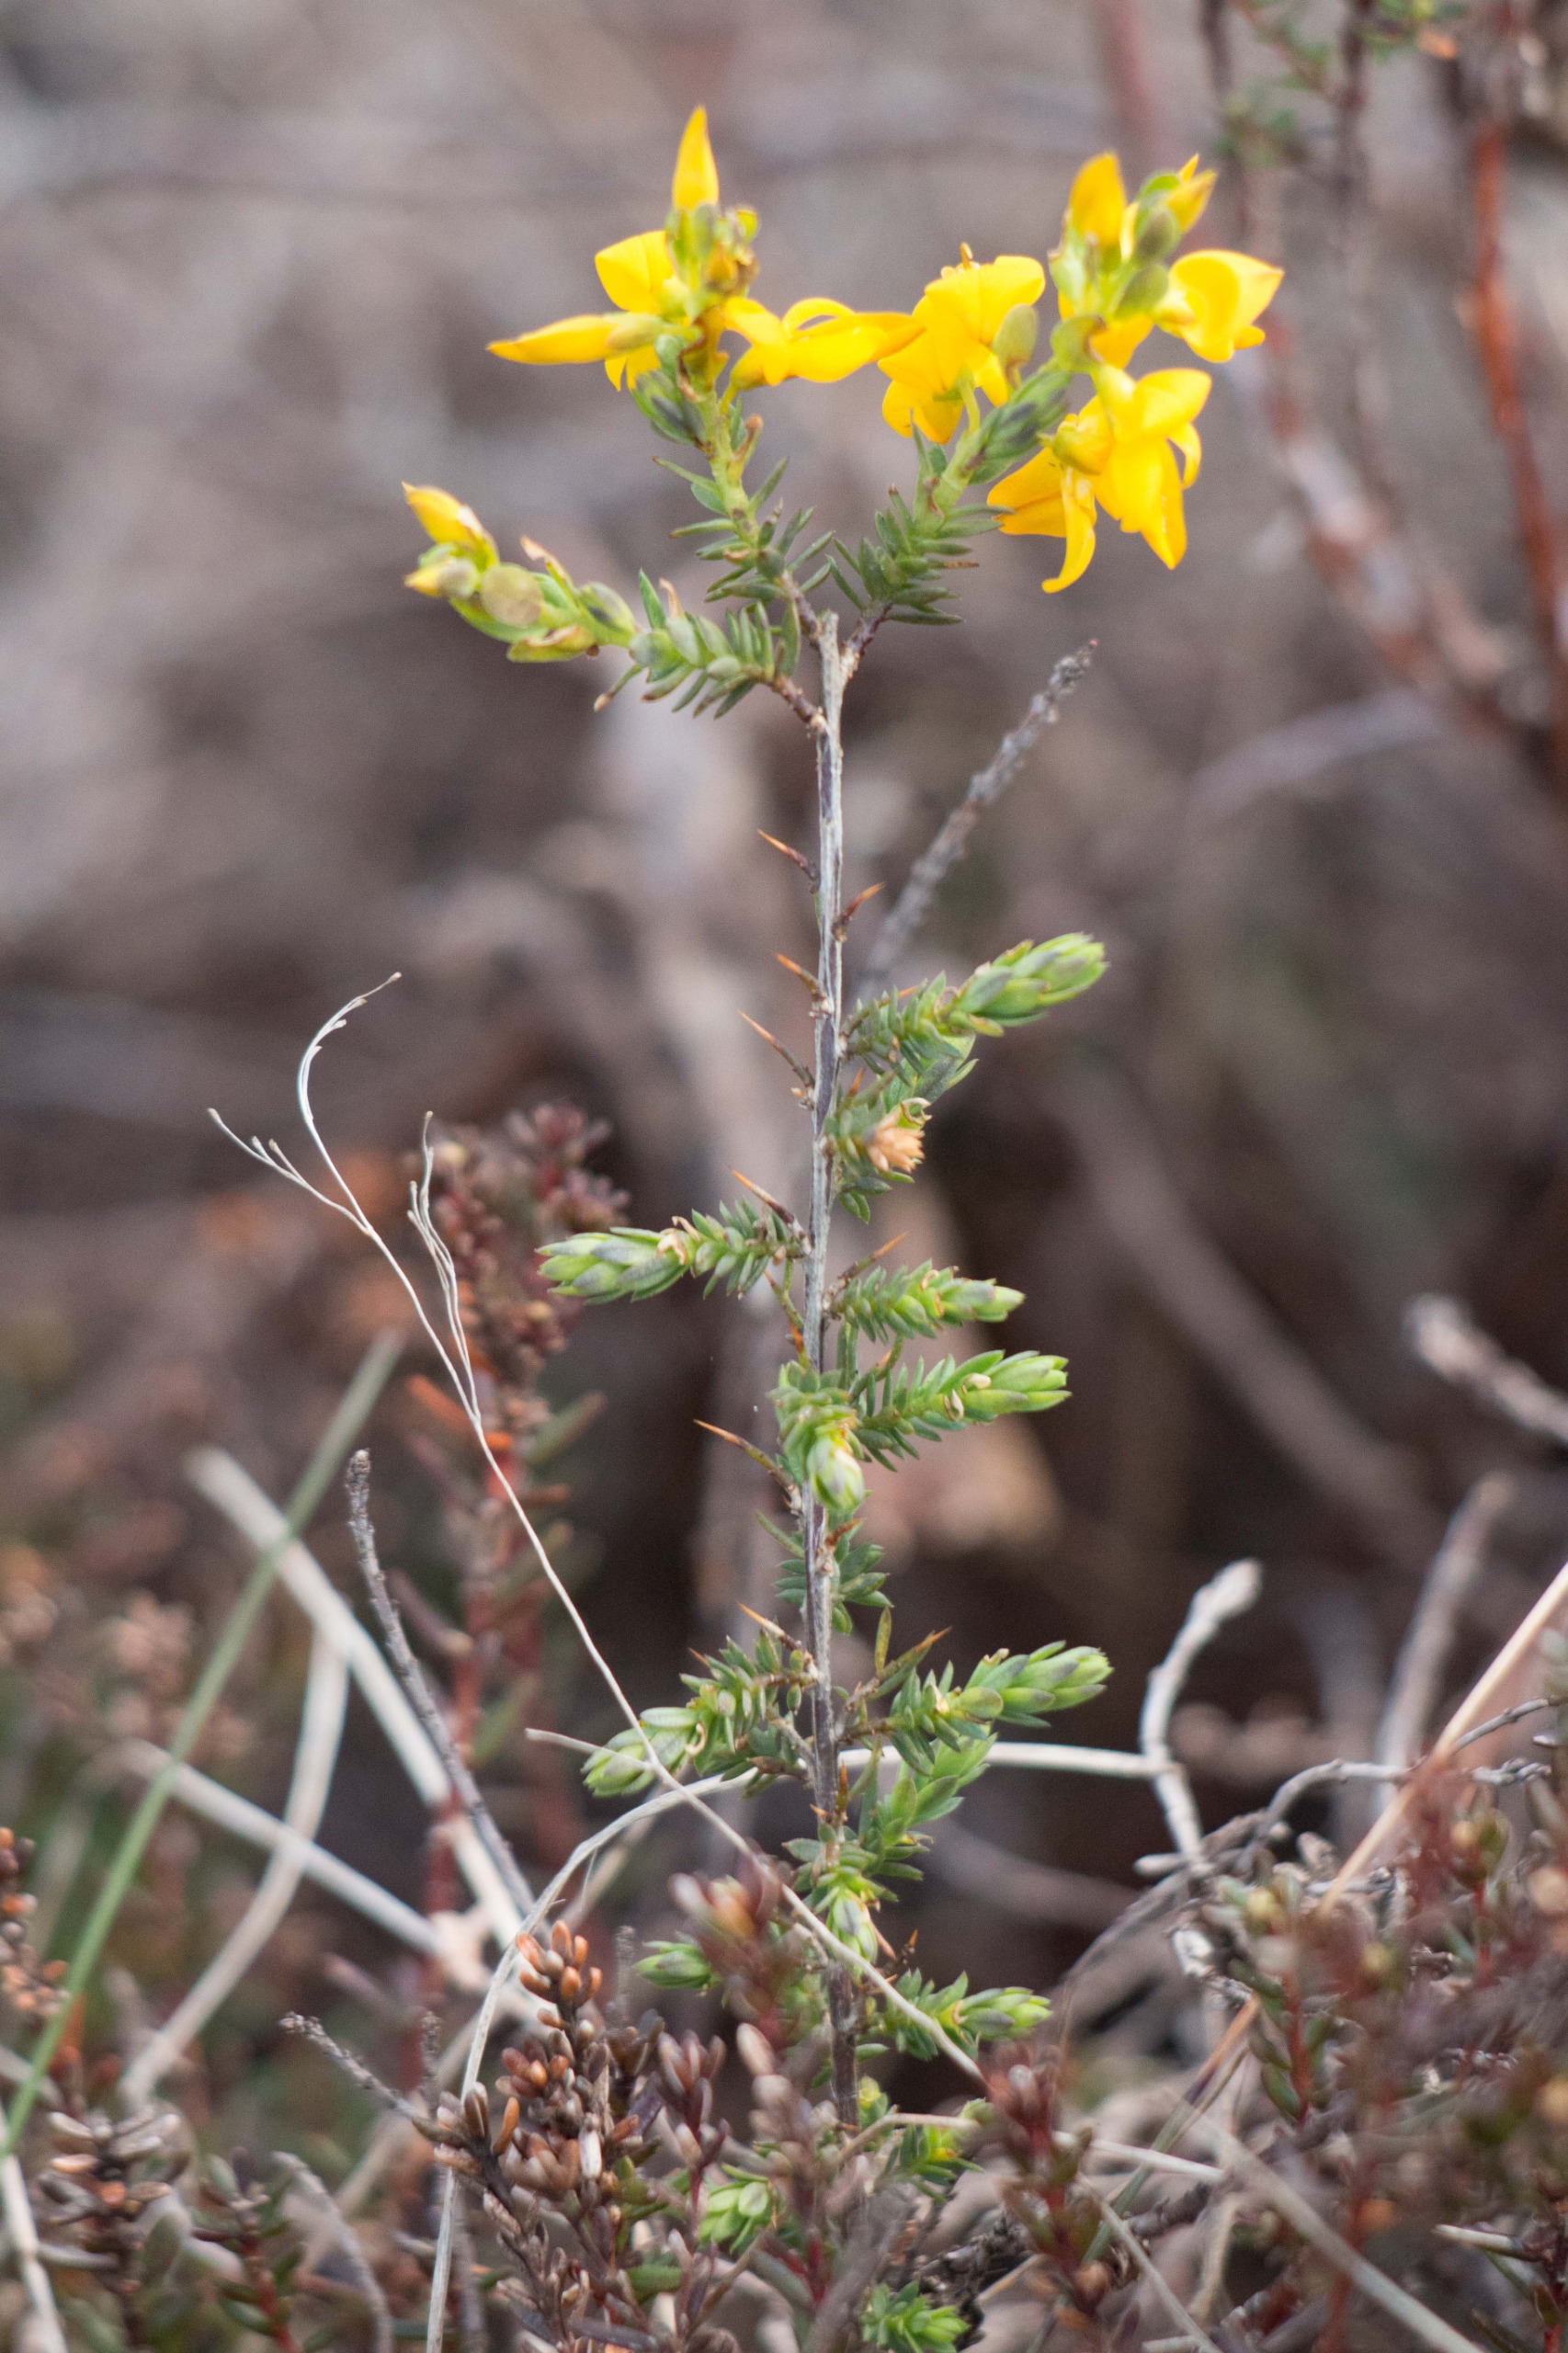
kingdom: Plantae
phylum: Tracheophyta
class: Magnoliopsida
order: Fabales
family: Fabaceae
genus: Genista
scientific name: Genista anglica
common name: Engelsk visse
